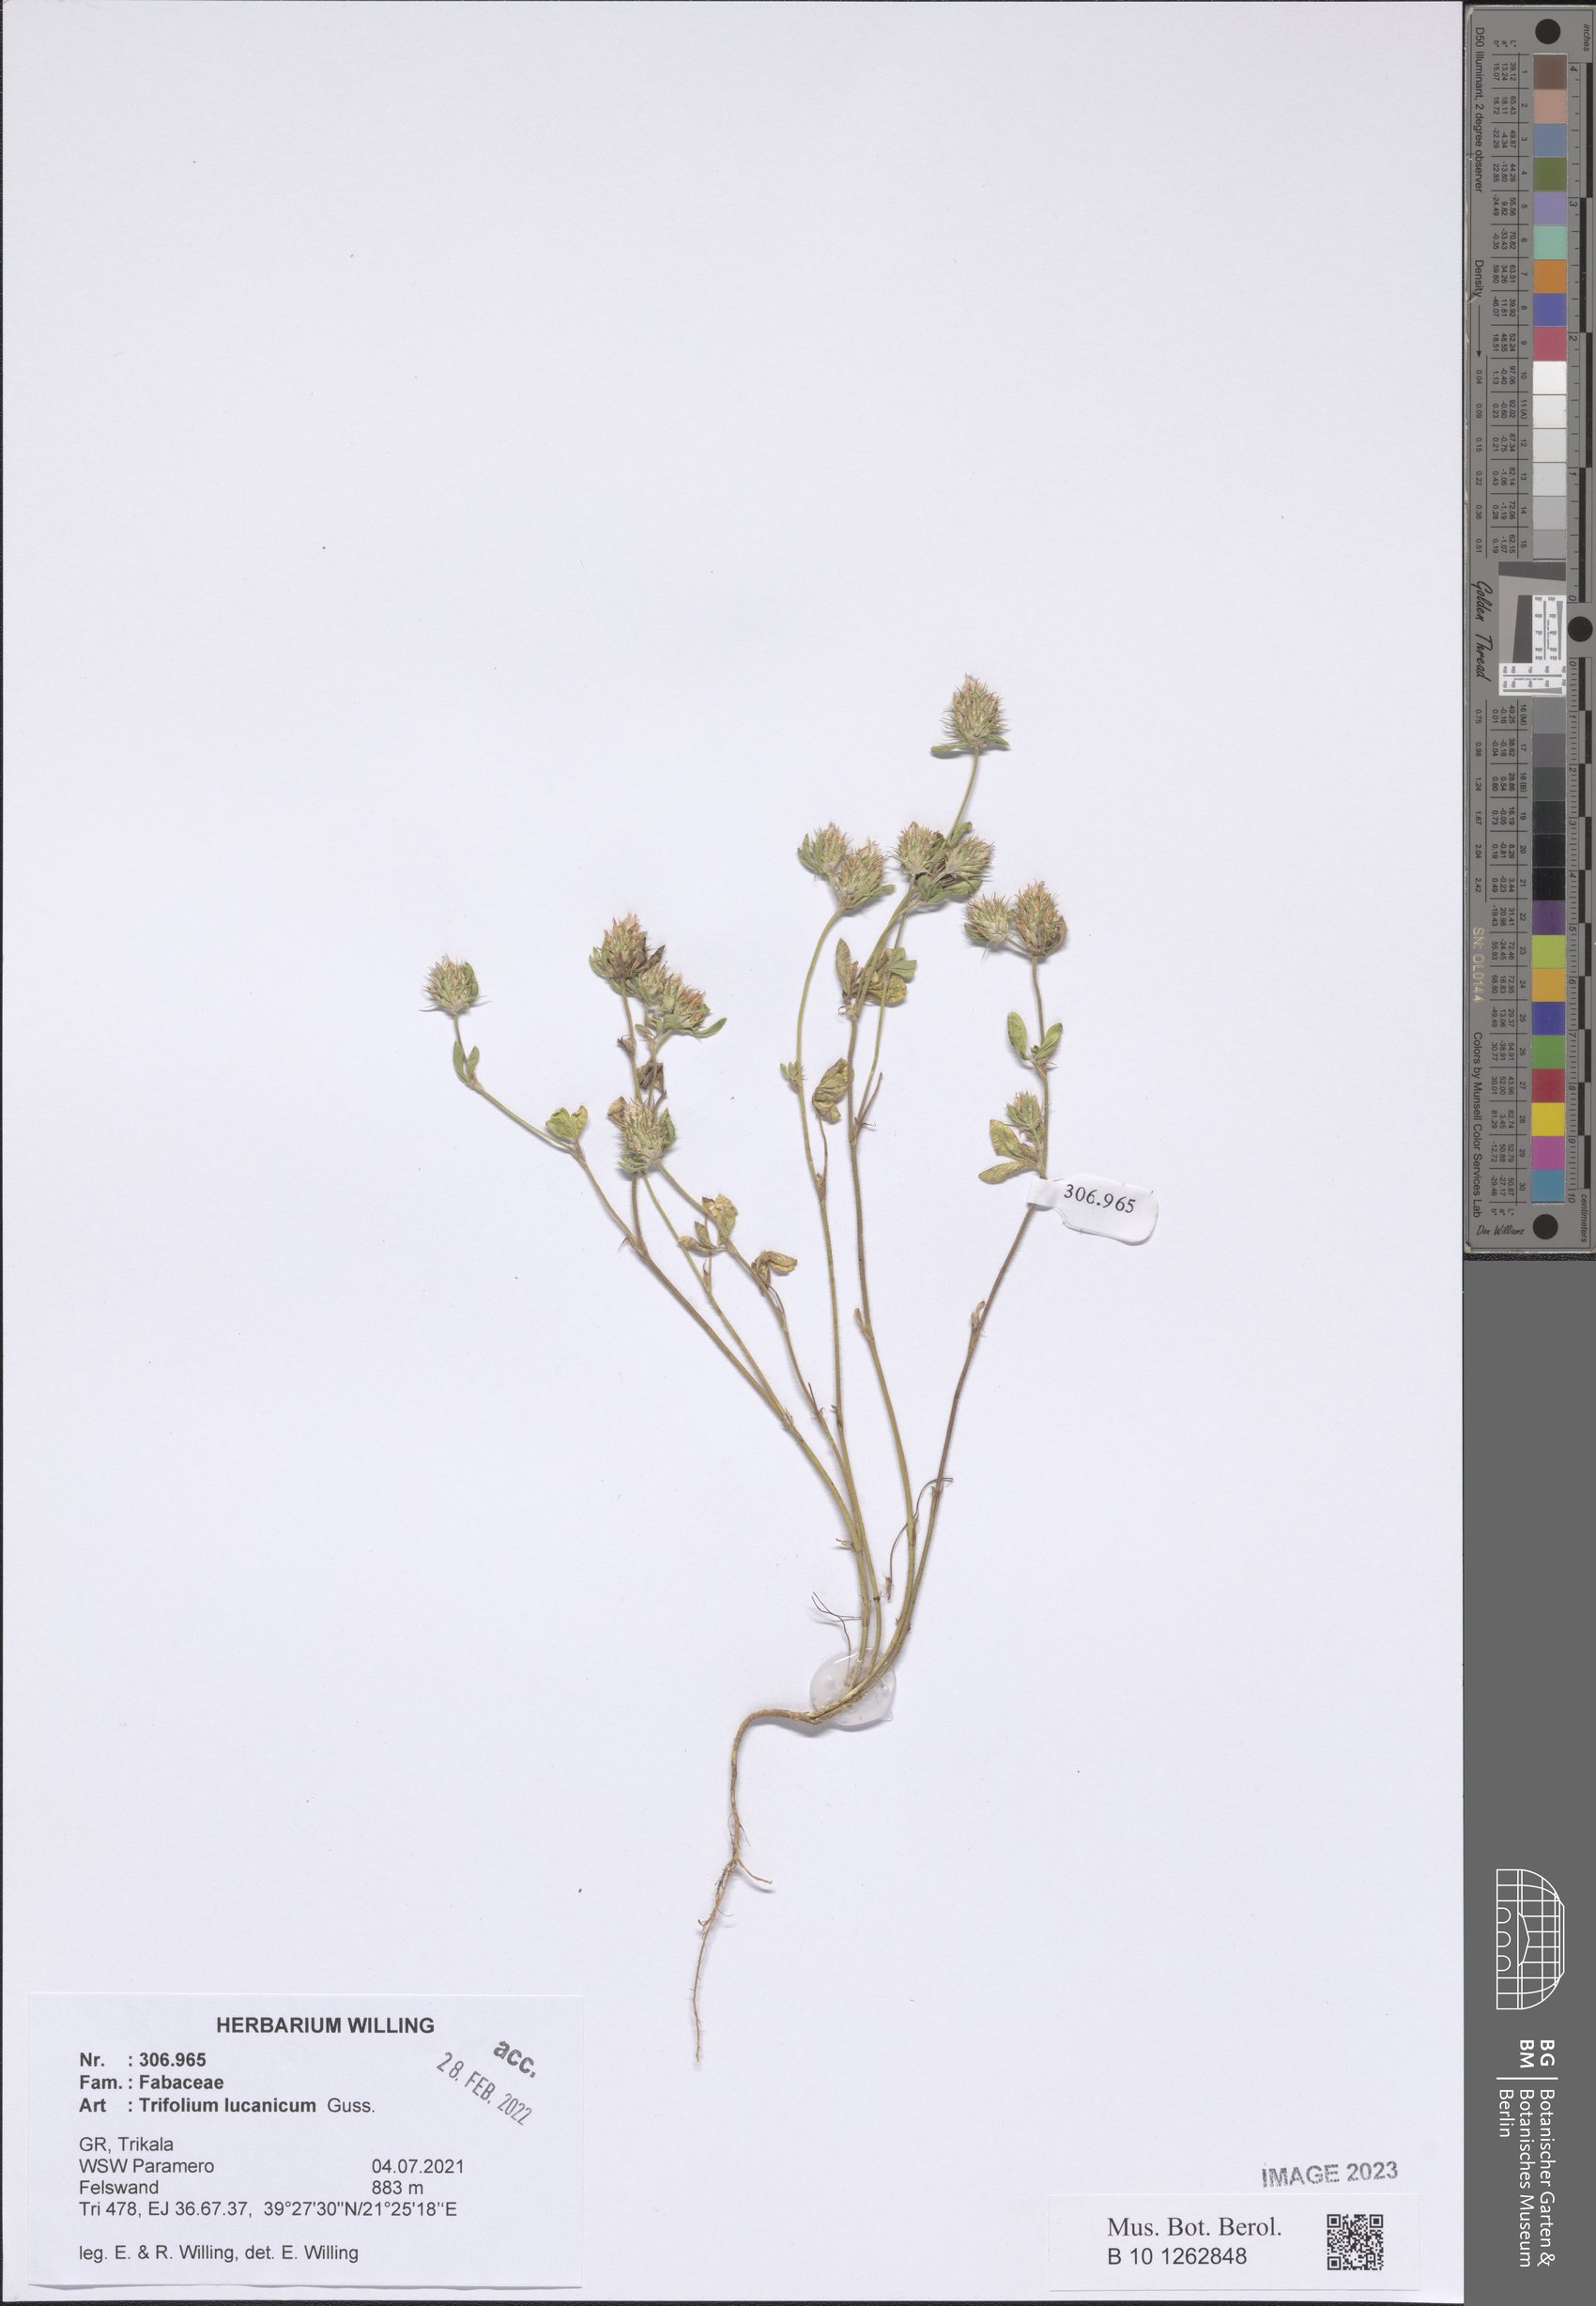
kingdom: Plantae
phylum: Tracheophyta
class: Magnoliopsida
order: Fabales
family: Fabaceae
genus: Trifolium
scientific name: Trifolium lucanicum
